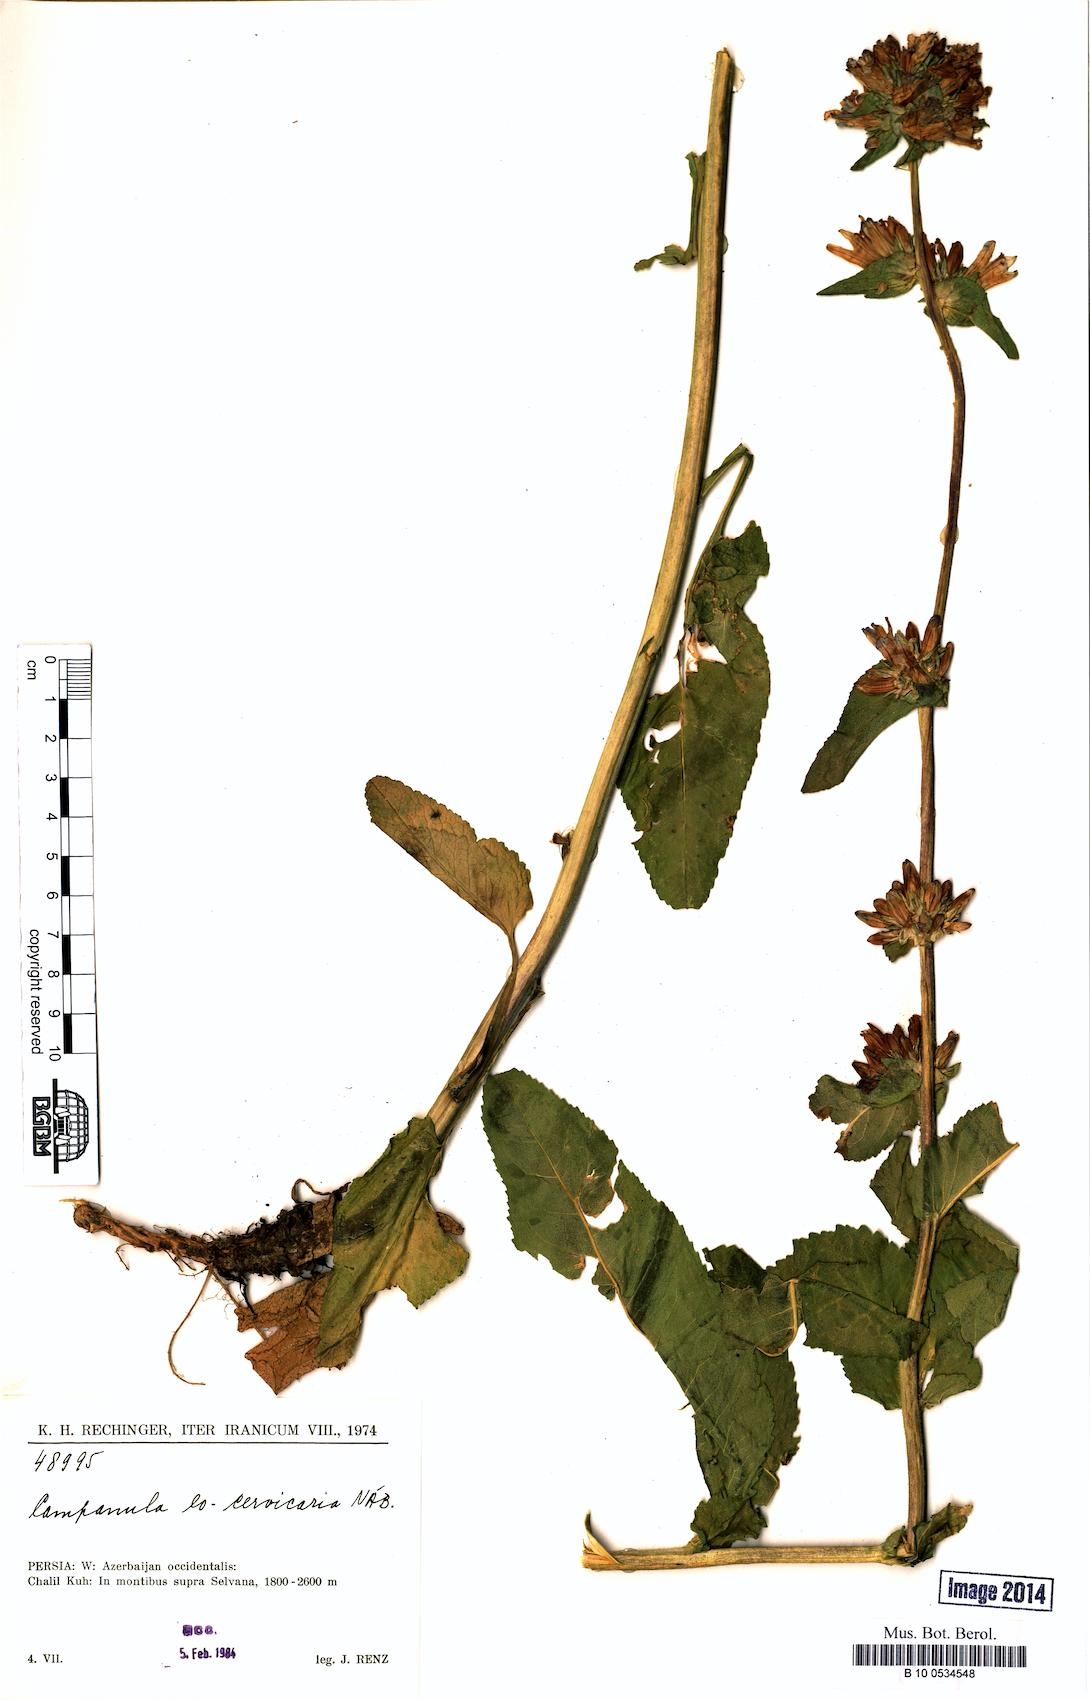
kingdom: Plantae
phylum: Tracheophyta
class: Magnoliopsida
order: Asterales
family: Campanulaceae
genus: Campanula
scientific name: Campanula cervicaria
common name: Bristly bellflower
